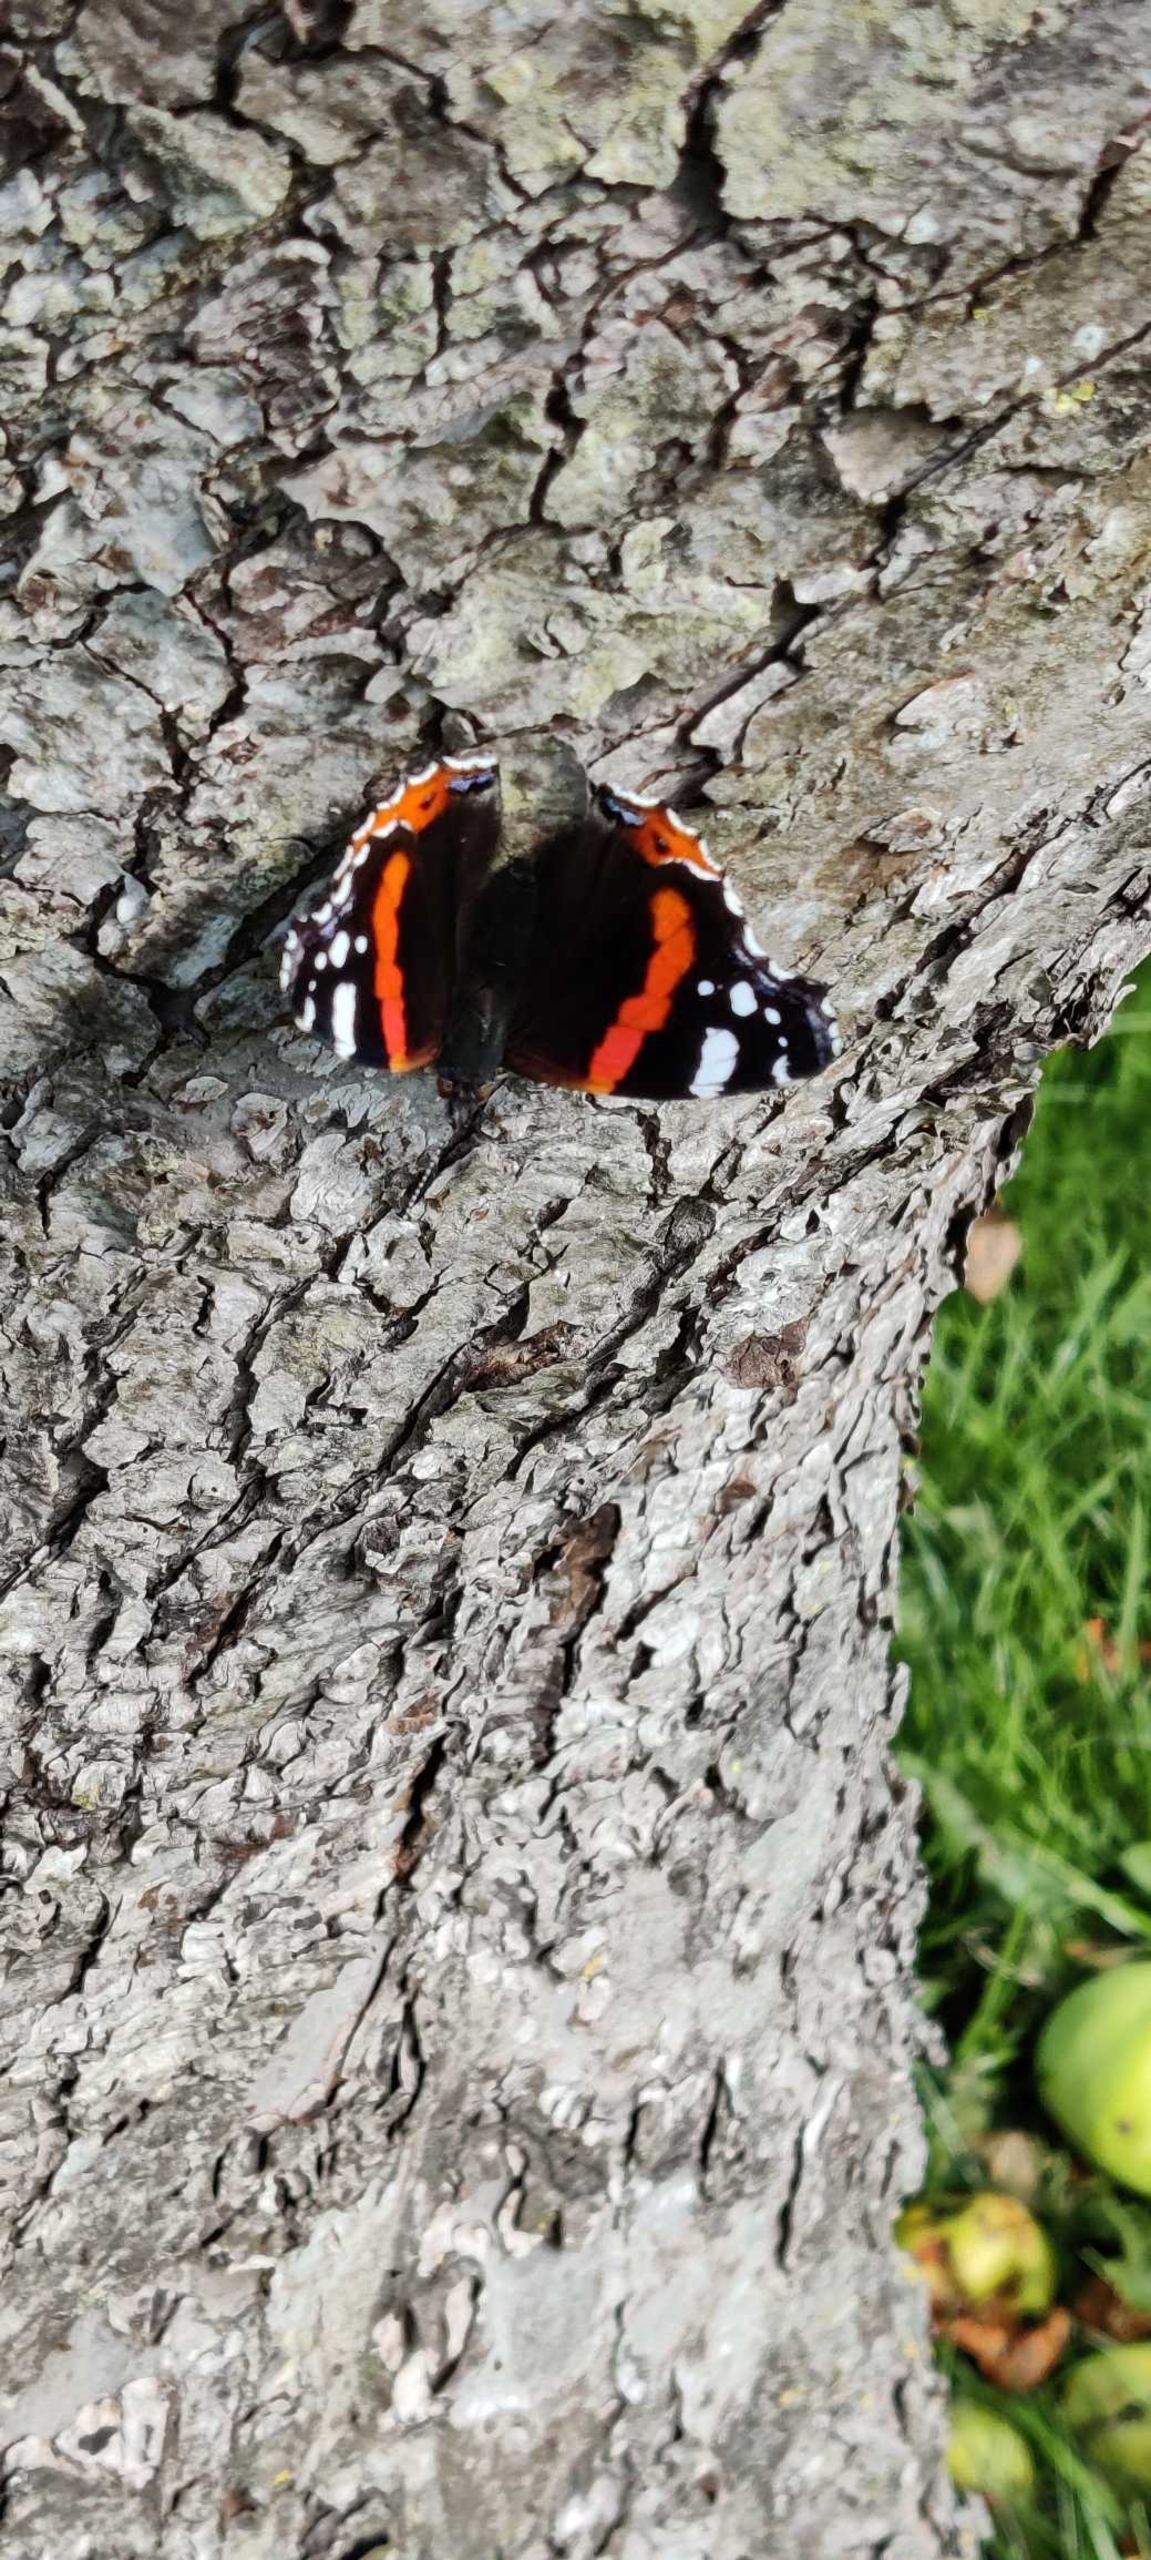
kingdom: Animalia
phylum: Arthropoda
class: Insecta
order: Lepidoptera
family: Nymphalidae
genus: Vanessa
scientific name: Vanessa atalanta
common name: Admiral
